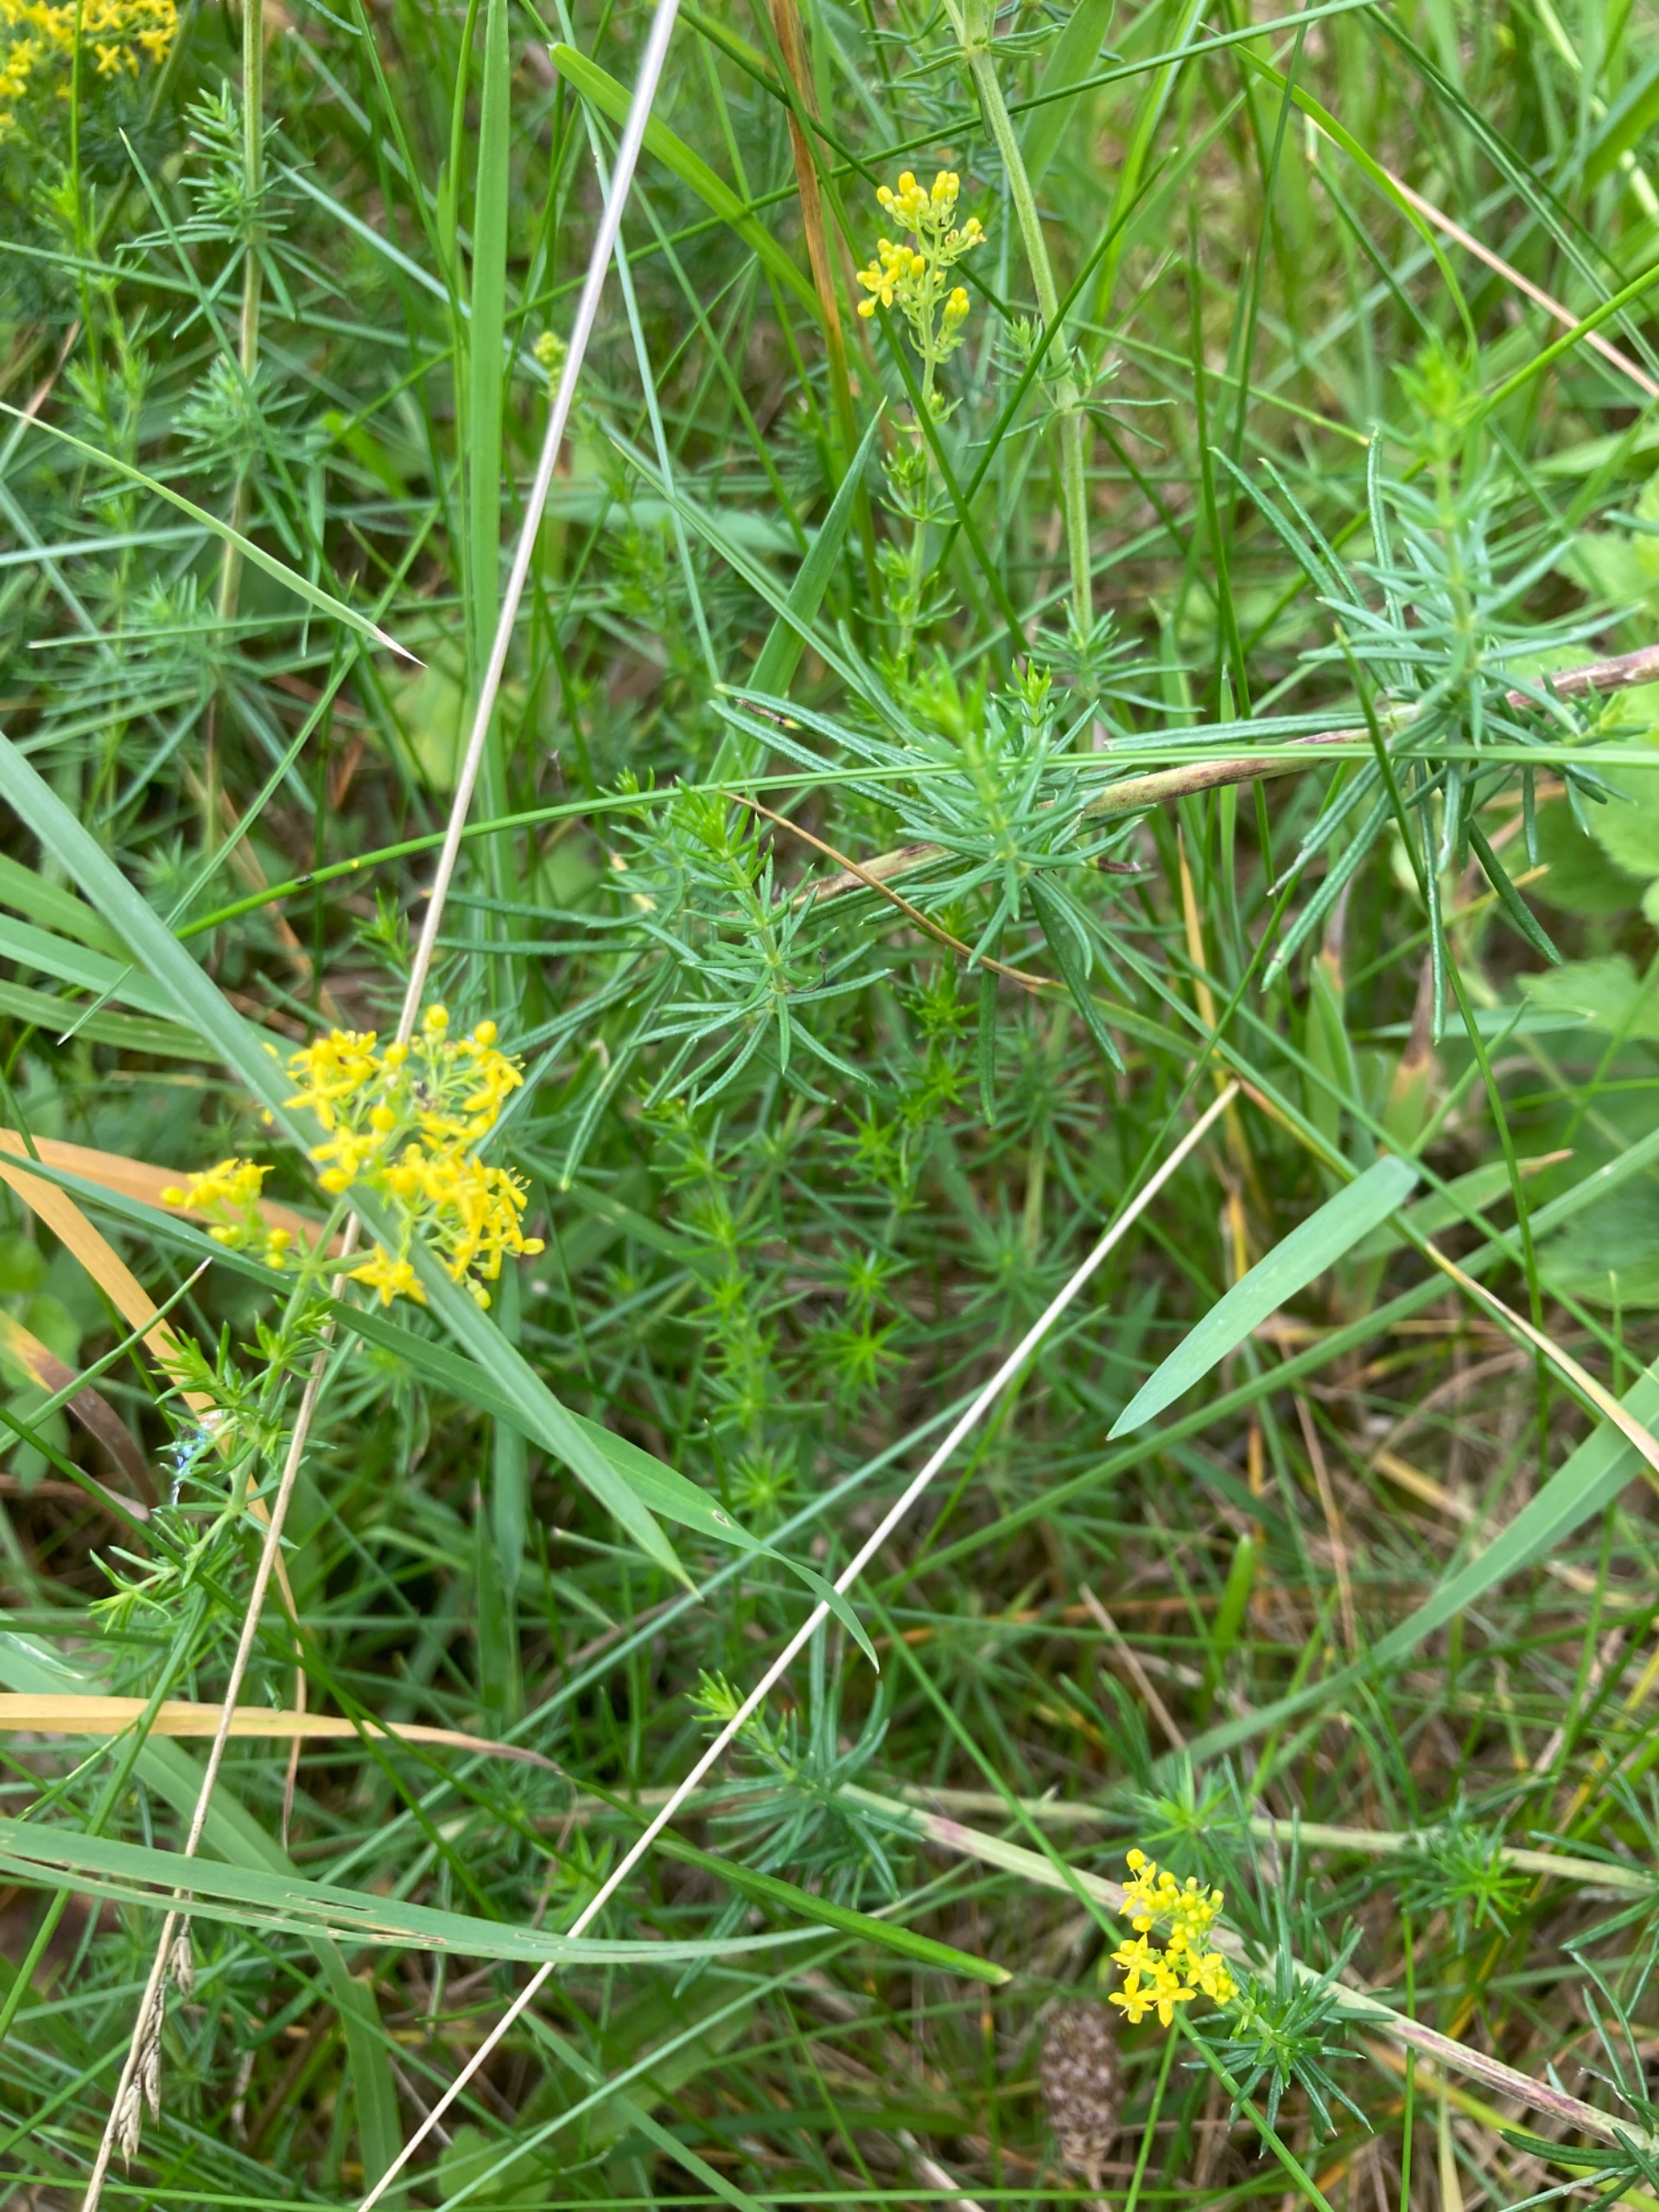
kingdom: Plantae
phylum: Tracheophyta
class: Magnoliopsida
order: Gentianales
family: Rubiaceae
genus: Galium
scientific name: Galium verum
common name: Gul snerre
